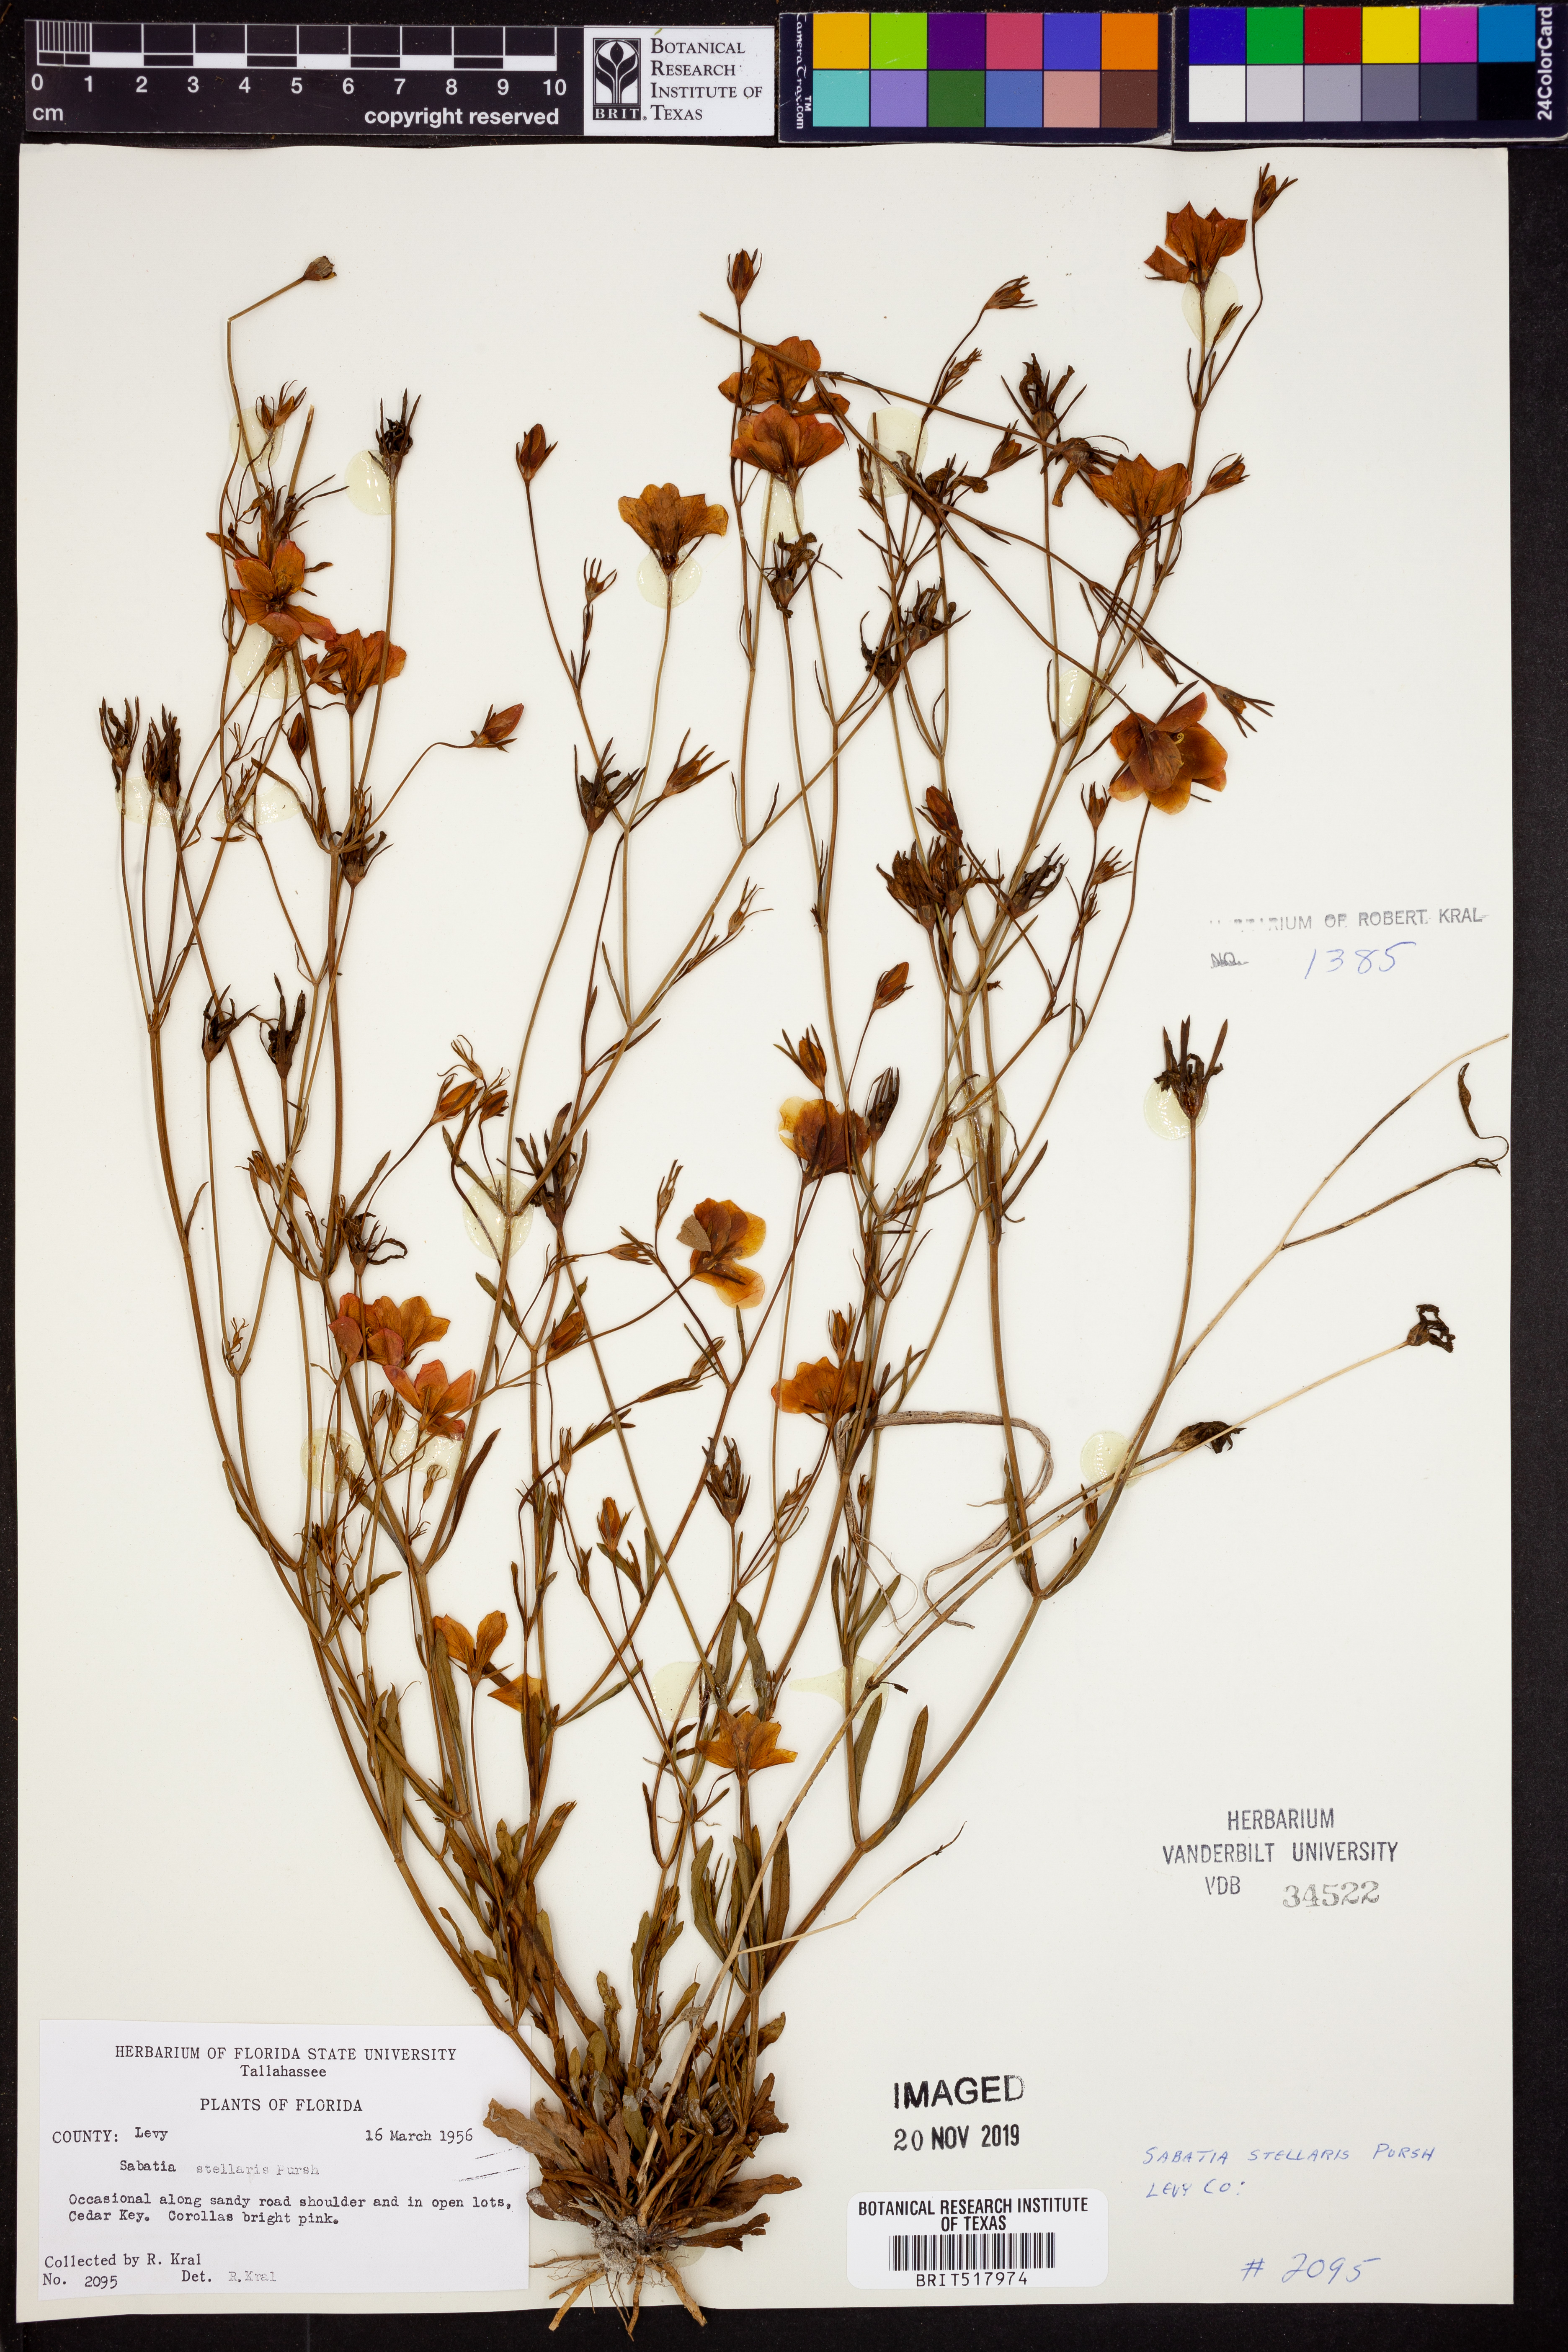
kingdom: Plantae
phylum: Tracheophyta
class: Magnoliopsida
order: Gentianales
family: Gentianaceae
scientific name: Gentianaceae
